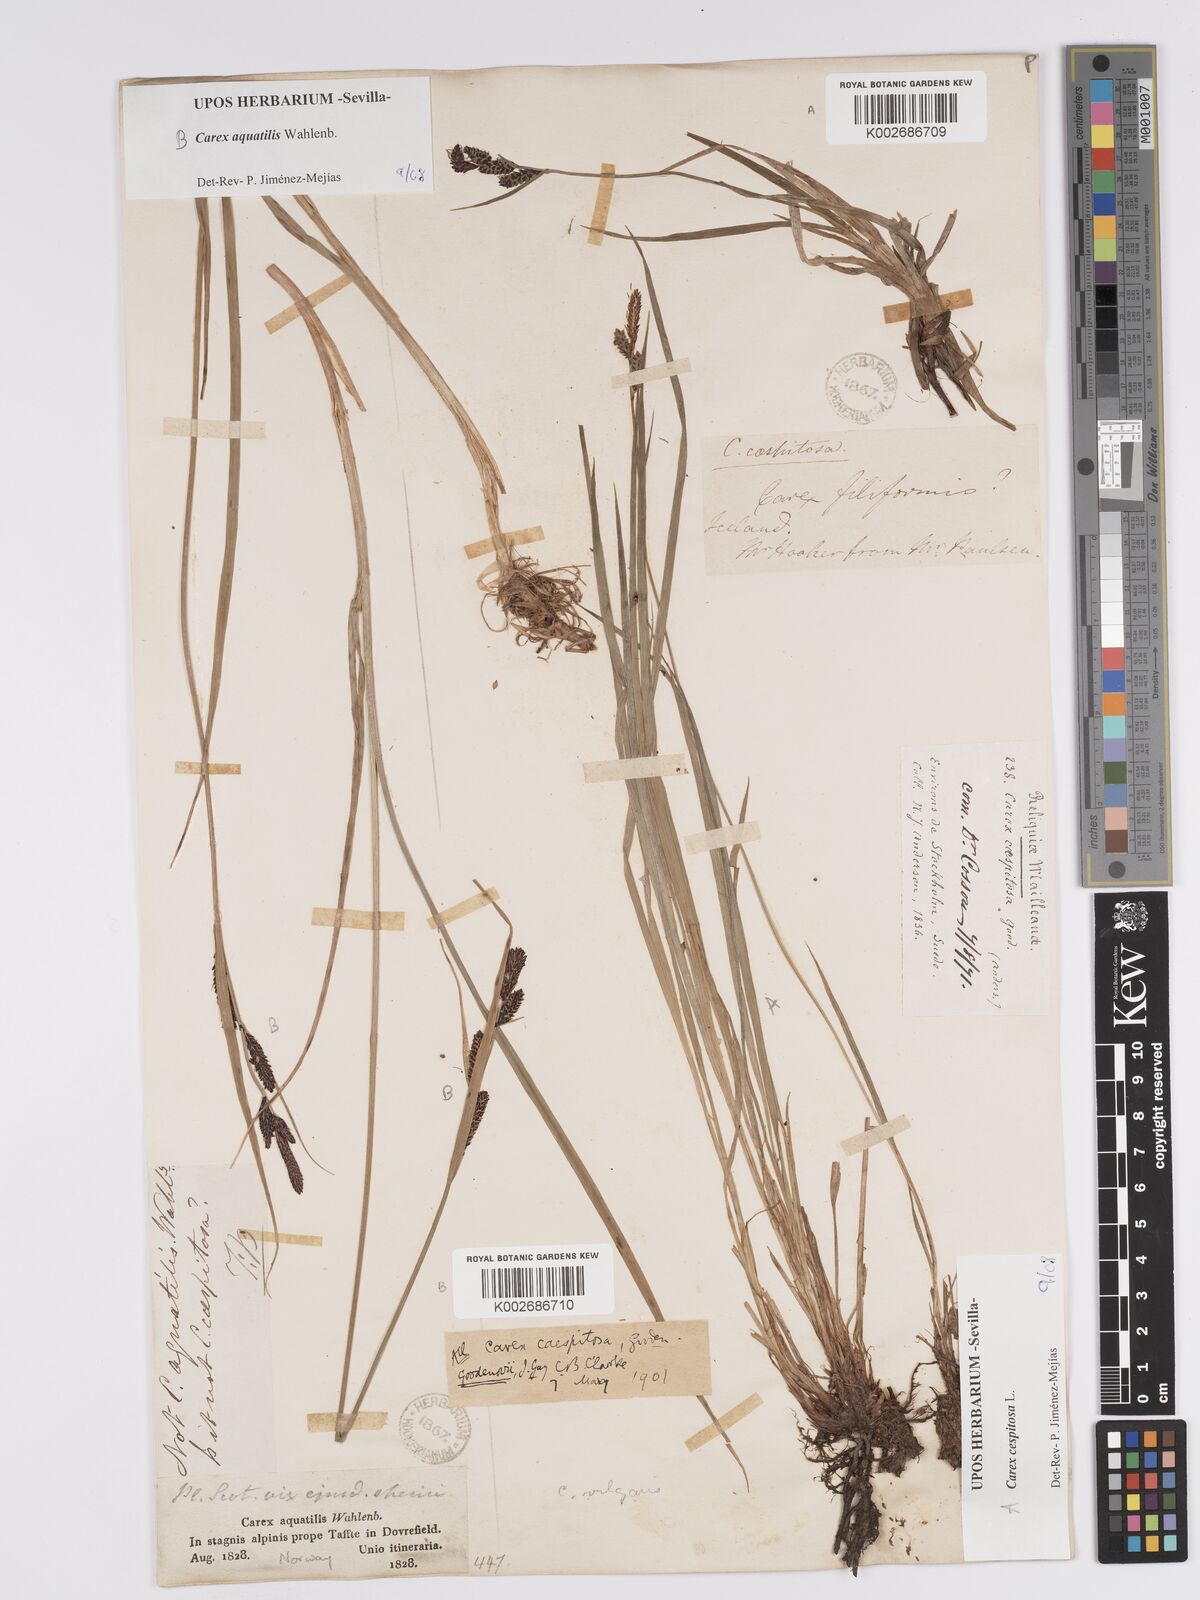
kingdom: Plantae
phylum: Tracheophyta
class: Liliopsida
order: Poales
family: Cyperaceae
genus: Carex
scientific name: Carex aquatilis
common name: Water sedge
